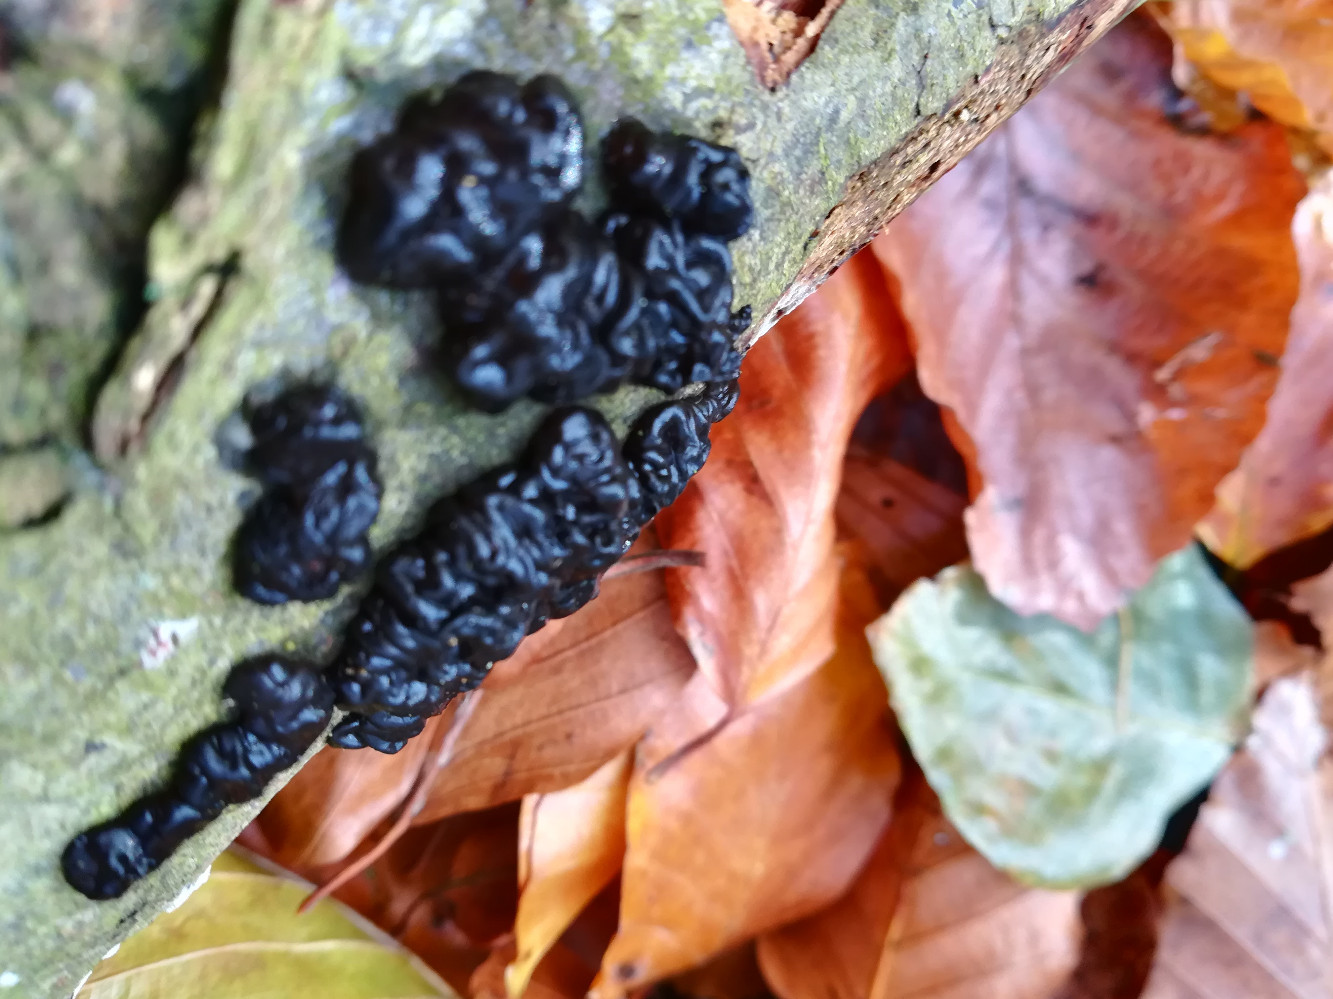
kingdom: Fungi
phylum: Basidiomycota
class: Agaricomycetes
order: Auriculariales
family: Auriculariaceae
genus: Exidia
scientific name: Exidia nigricans
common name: almindelig bævretop
